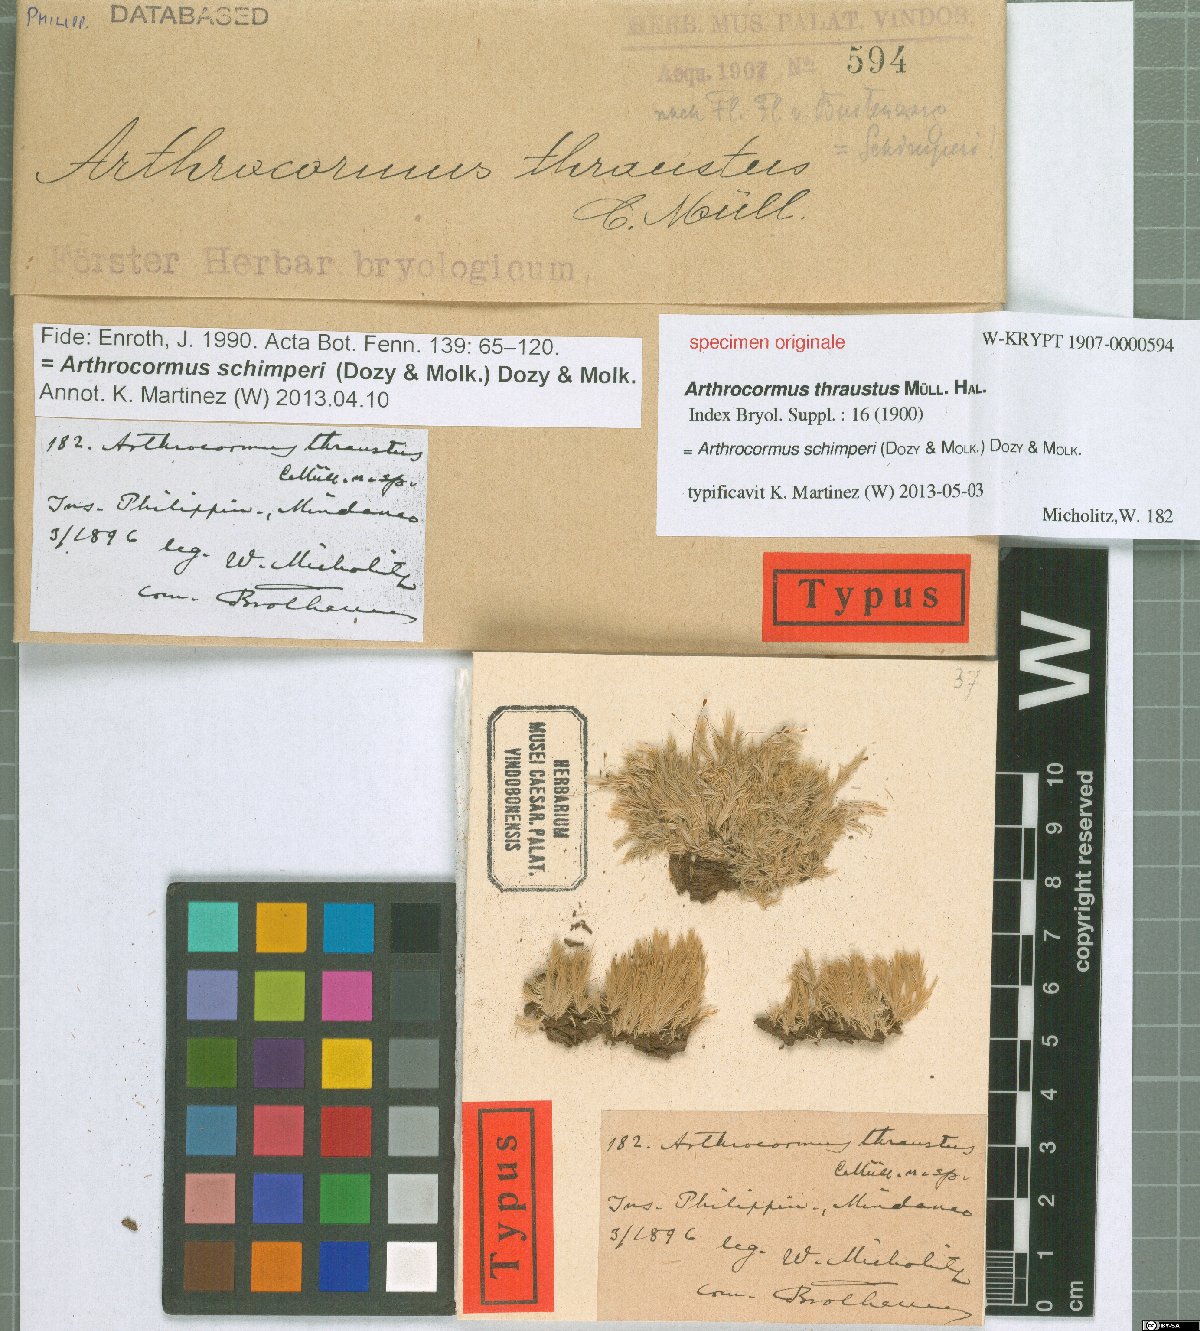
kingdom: Plantae
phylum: Bryophyta
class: Bryopsida
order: Dicranales
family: Calymperaceae
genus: Arthrocormus
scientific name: Arthrocormus
